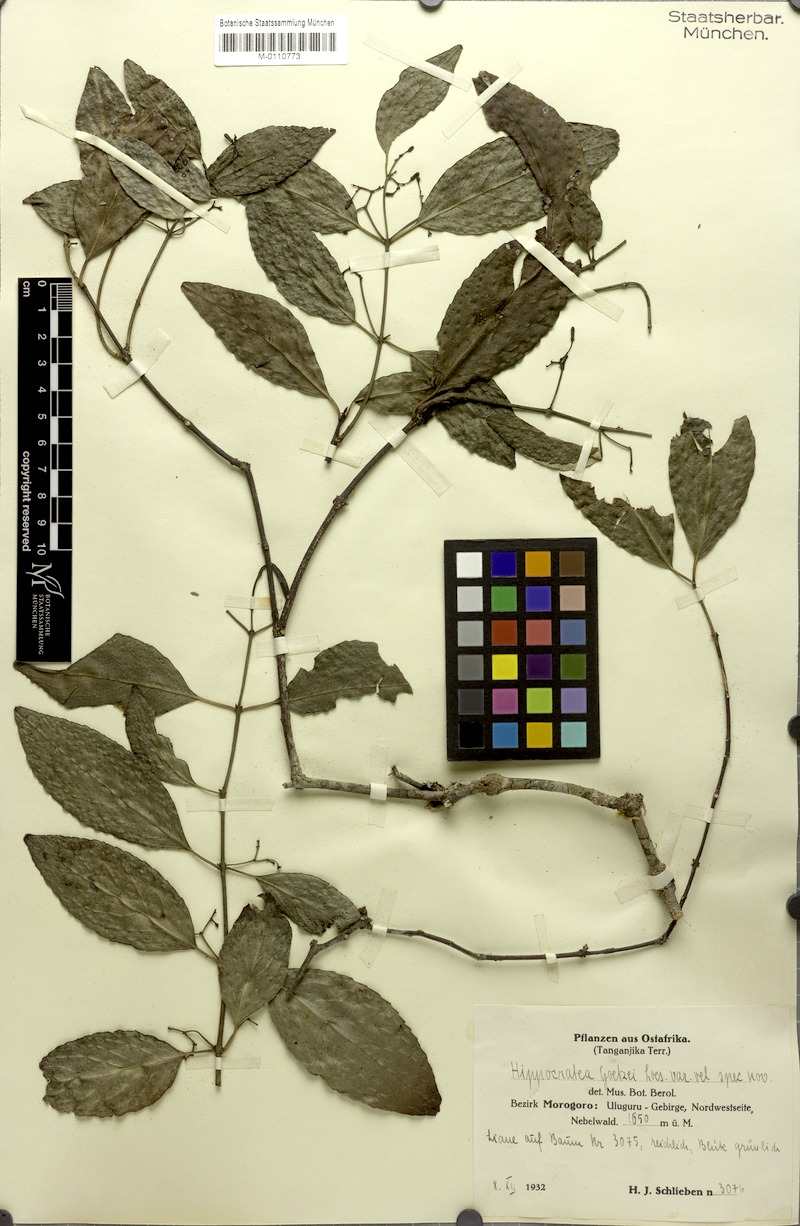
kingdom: Plantae
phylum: Tracheophyta
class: Magnoliopsida
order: Celastrales
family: Celastraceae
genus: Pristimera
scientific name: Pristimera goetzei
